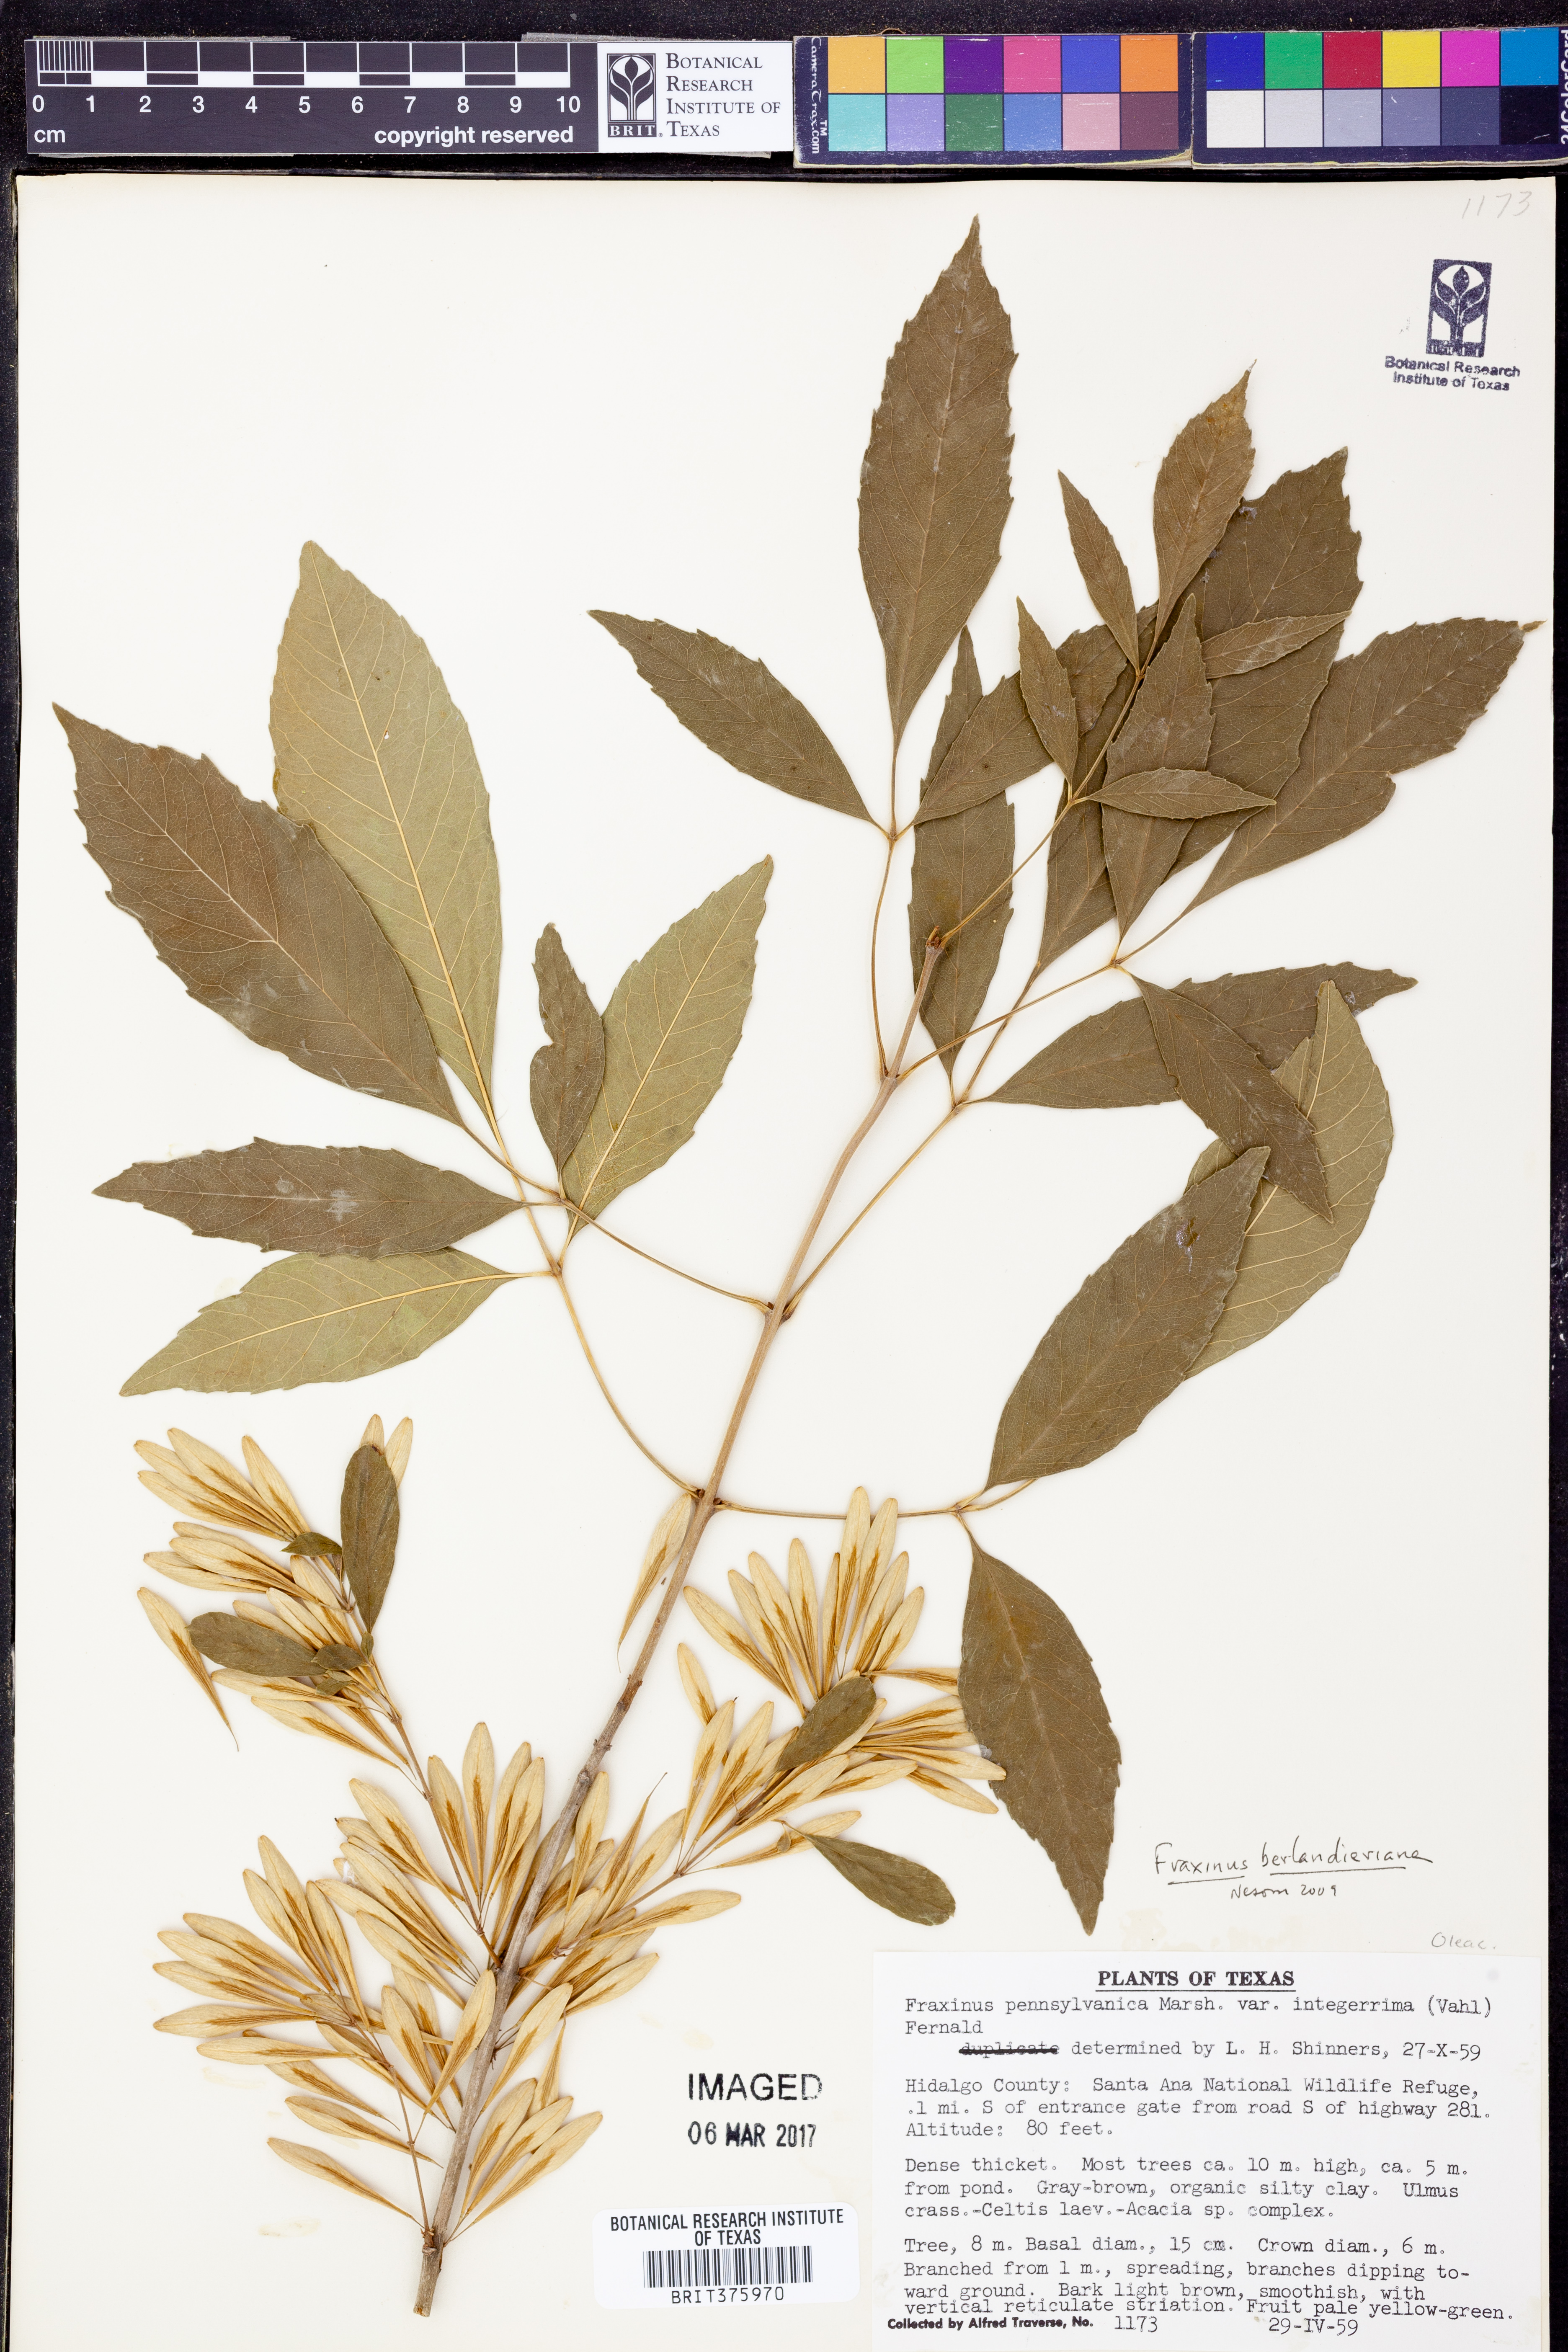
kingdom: Plantae
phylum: Tracheophyta
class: Magnoliopsida
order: Lamiales
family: Oleaceae
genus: Fraxinus
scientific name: Fraxinus berlandieriana
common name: Berlandier ash
